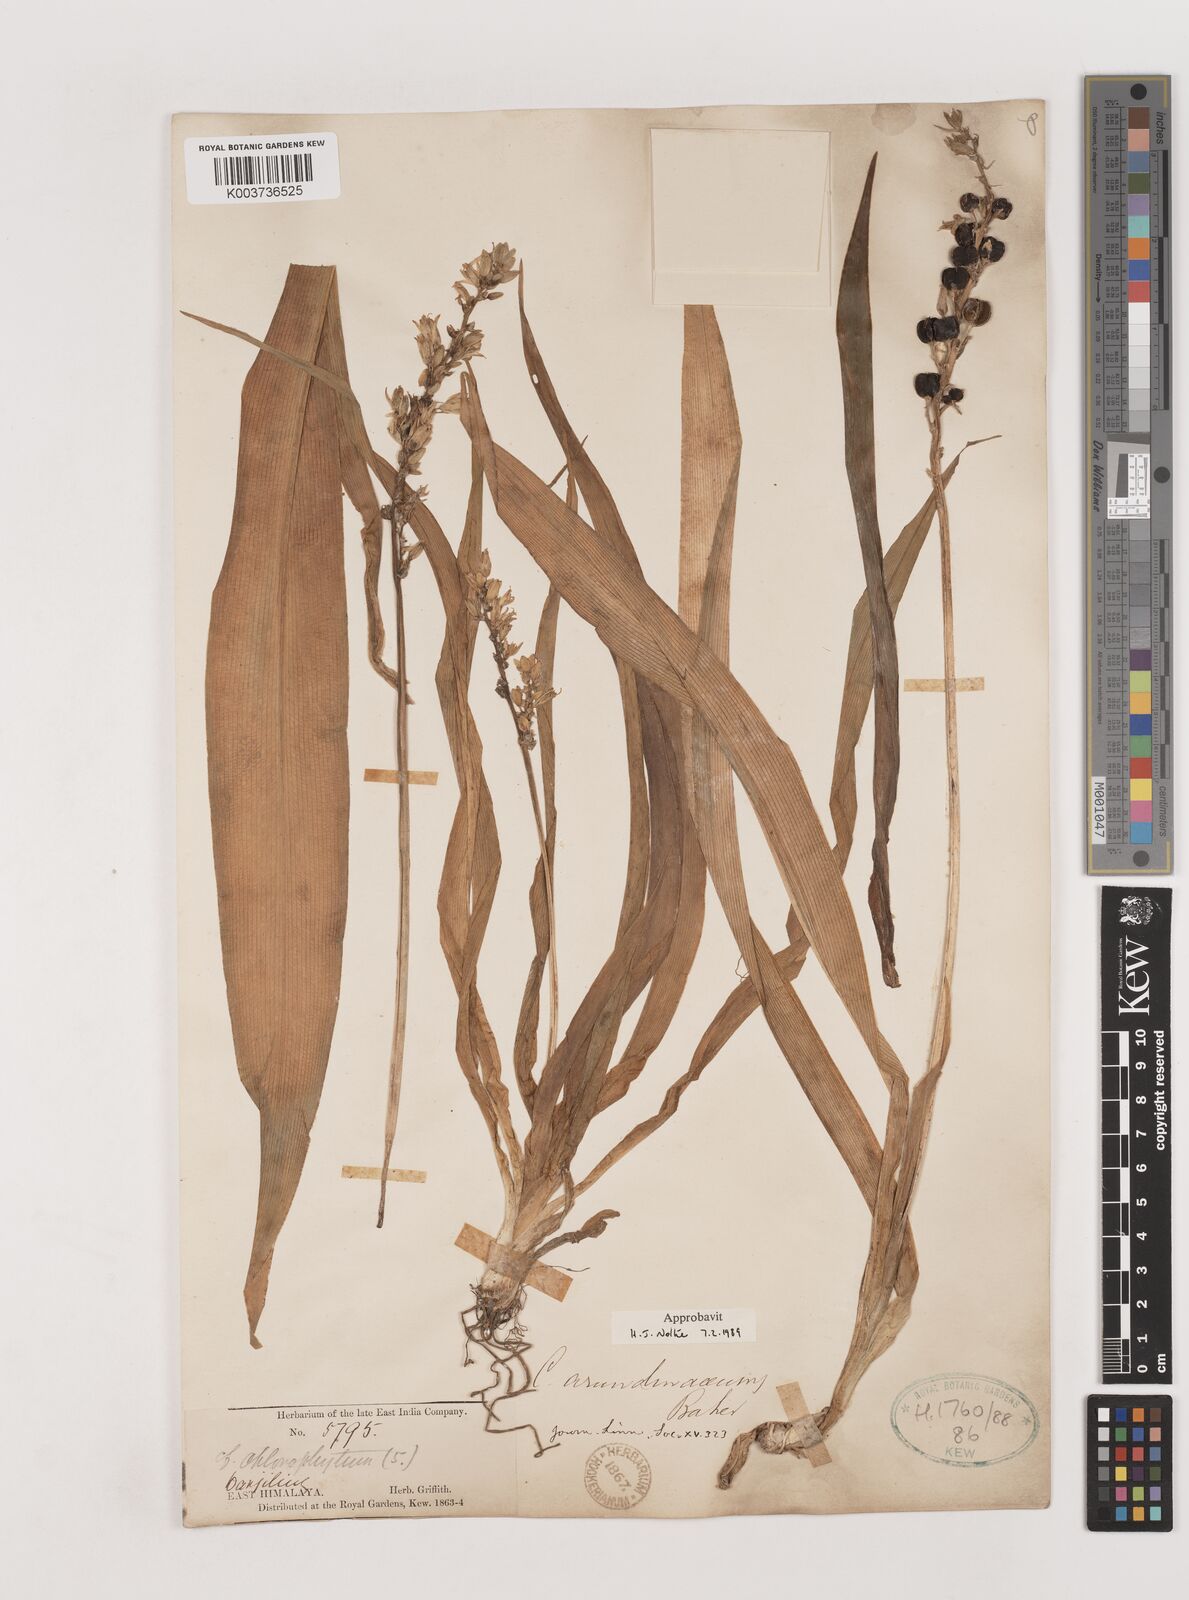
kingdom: Plantae
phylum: Tracheophyta
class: Liliopsida
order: Asparagales
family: Asparagaceae
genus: Chlorophytum
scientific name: Chlorophytum arundinaceum
